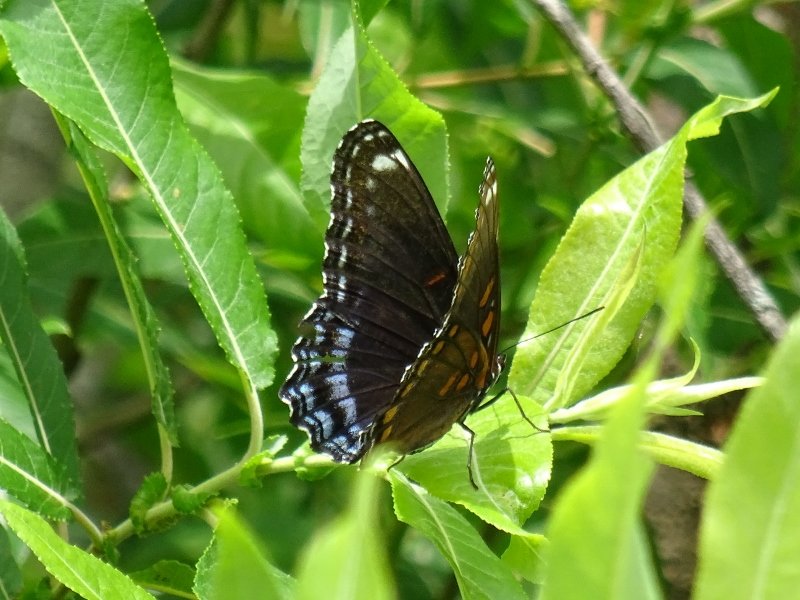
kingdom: Animalia
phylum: Arthropoda
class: Insecta
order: Lepidoptera
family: Nymphalidae
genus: Limenitis
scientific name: Limenitis astyanax
